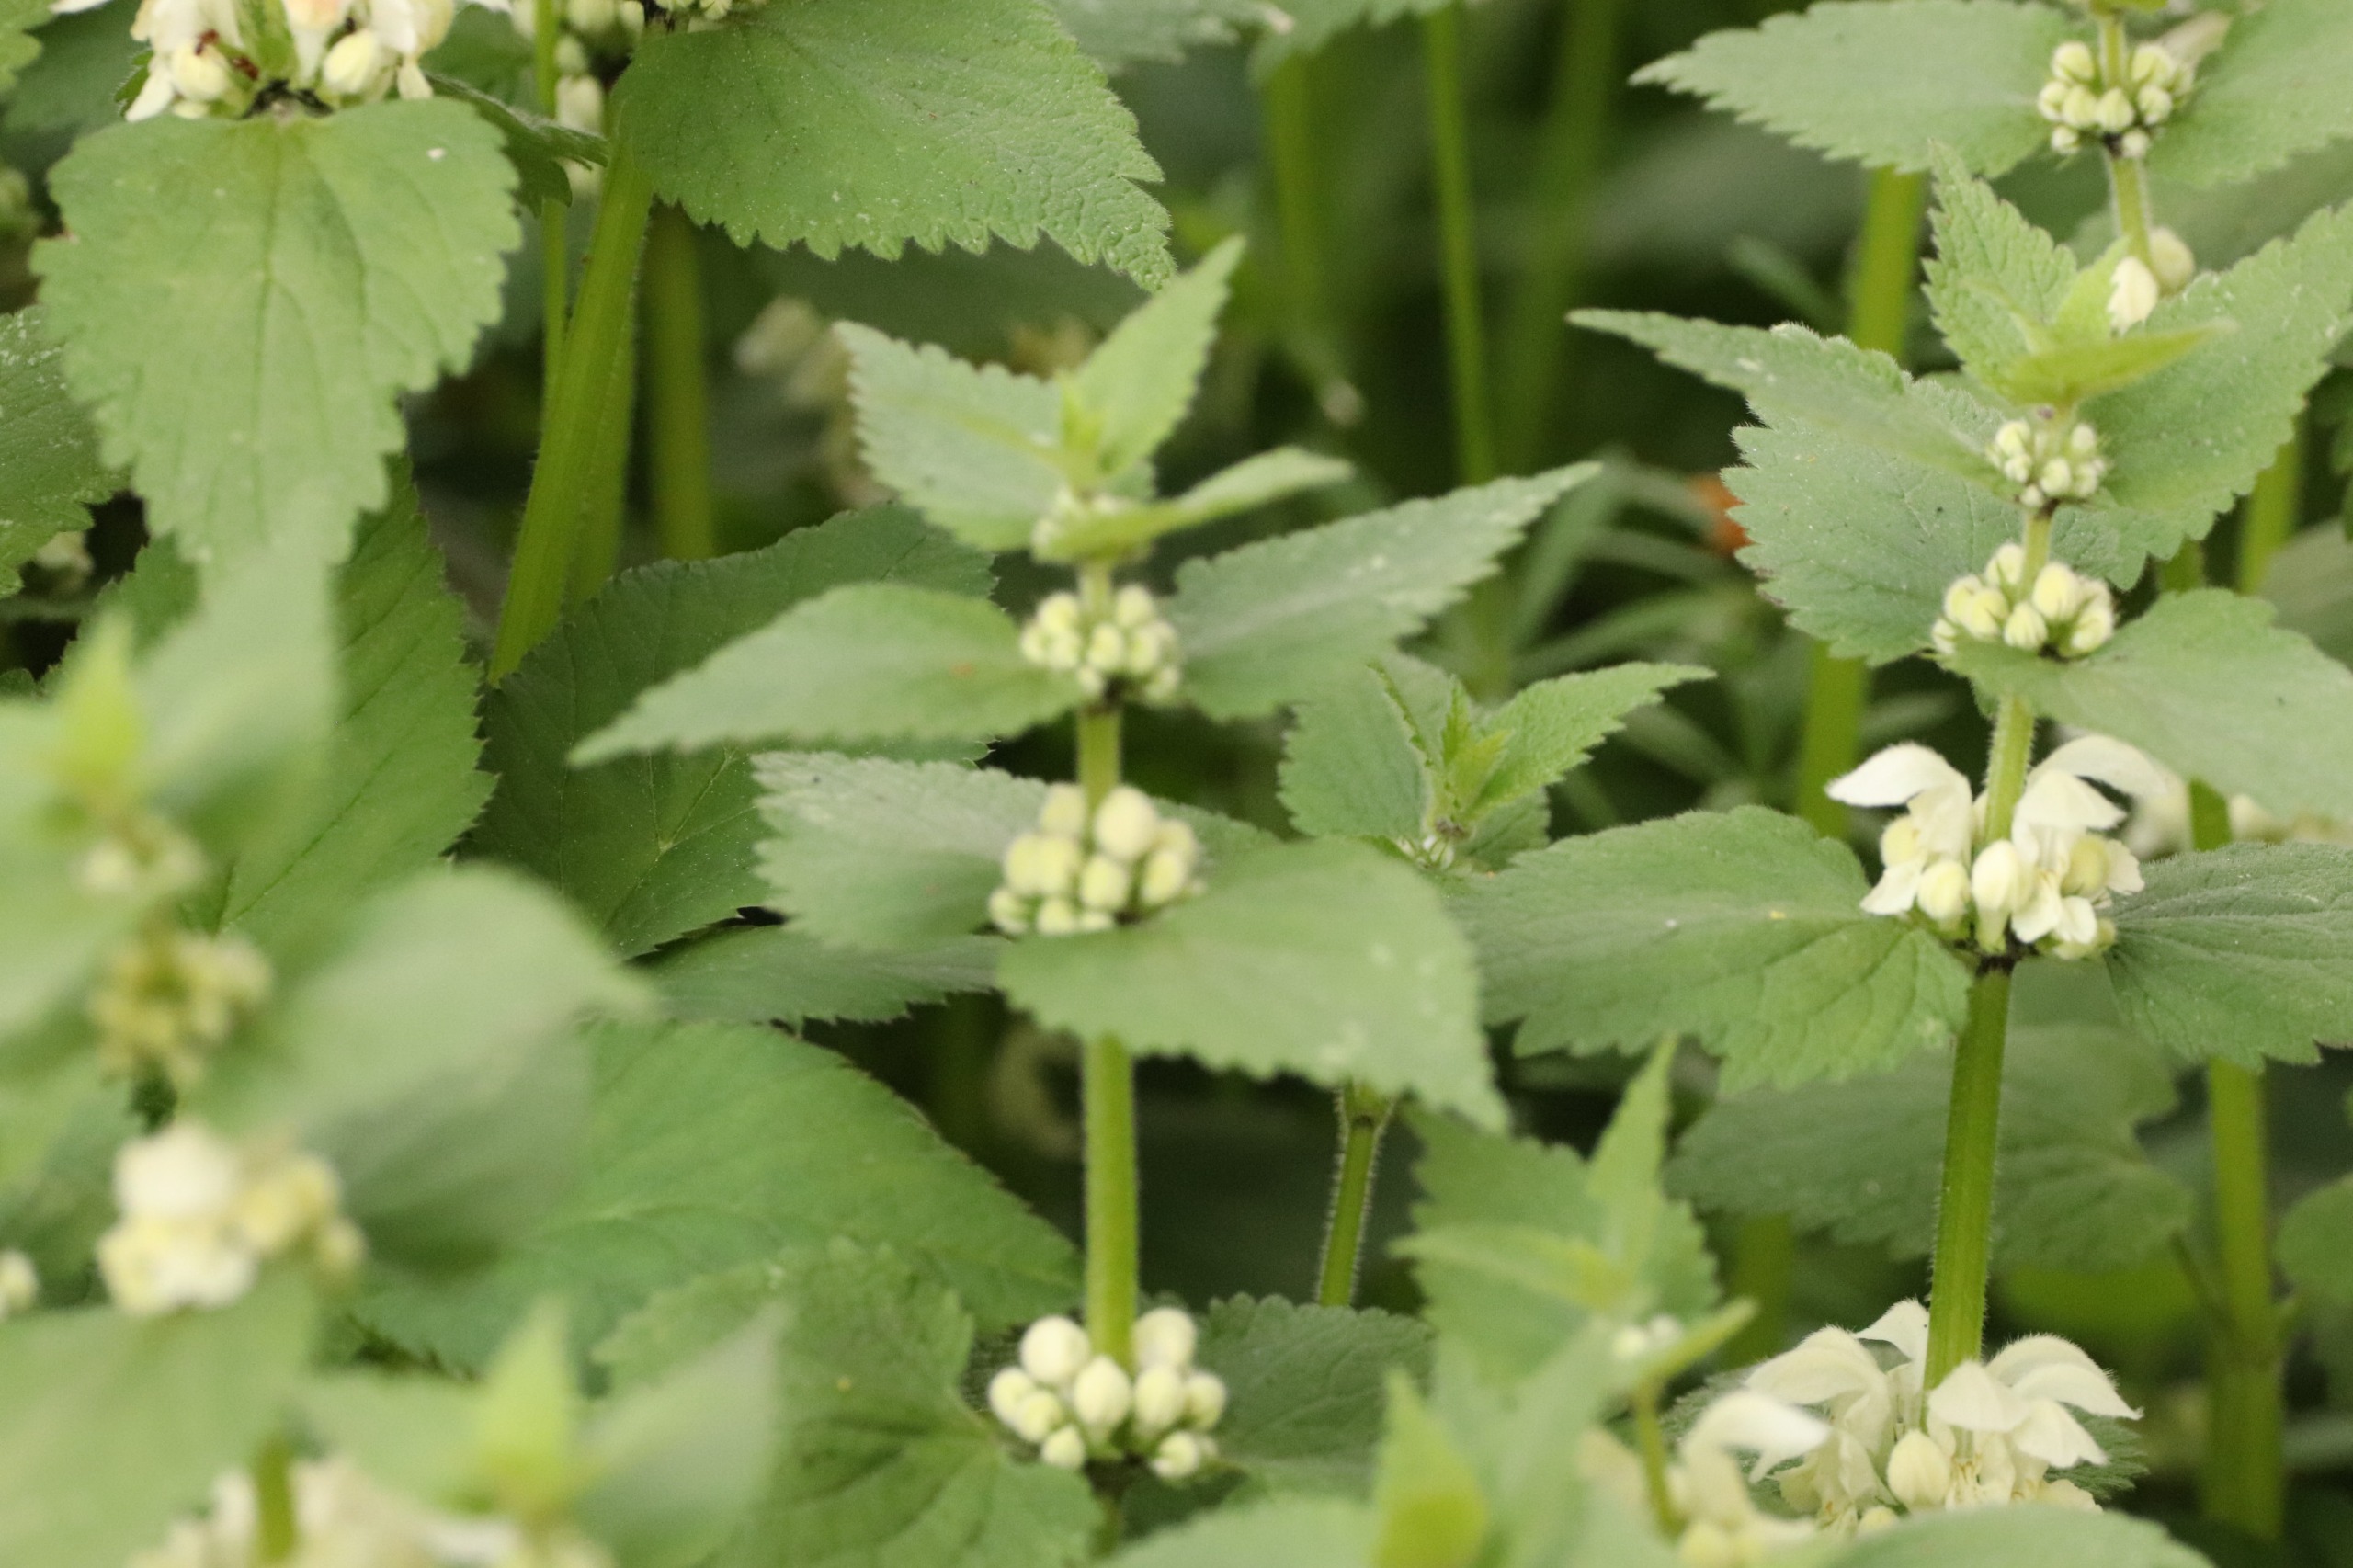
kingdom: Plantae
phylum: Tracheophyta
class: Magnoliopsida
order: Lamiales
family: Lamiaceae
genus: Lamium
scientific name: Lamium album
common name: Døvnælde
